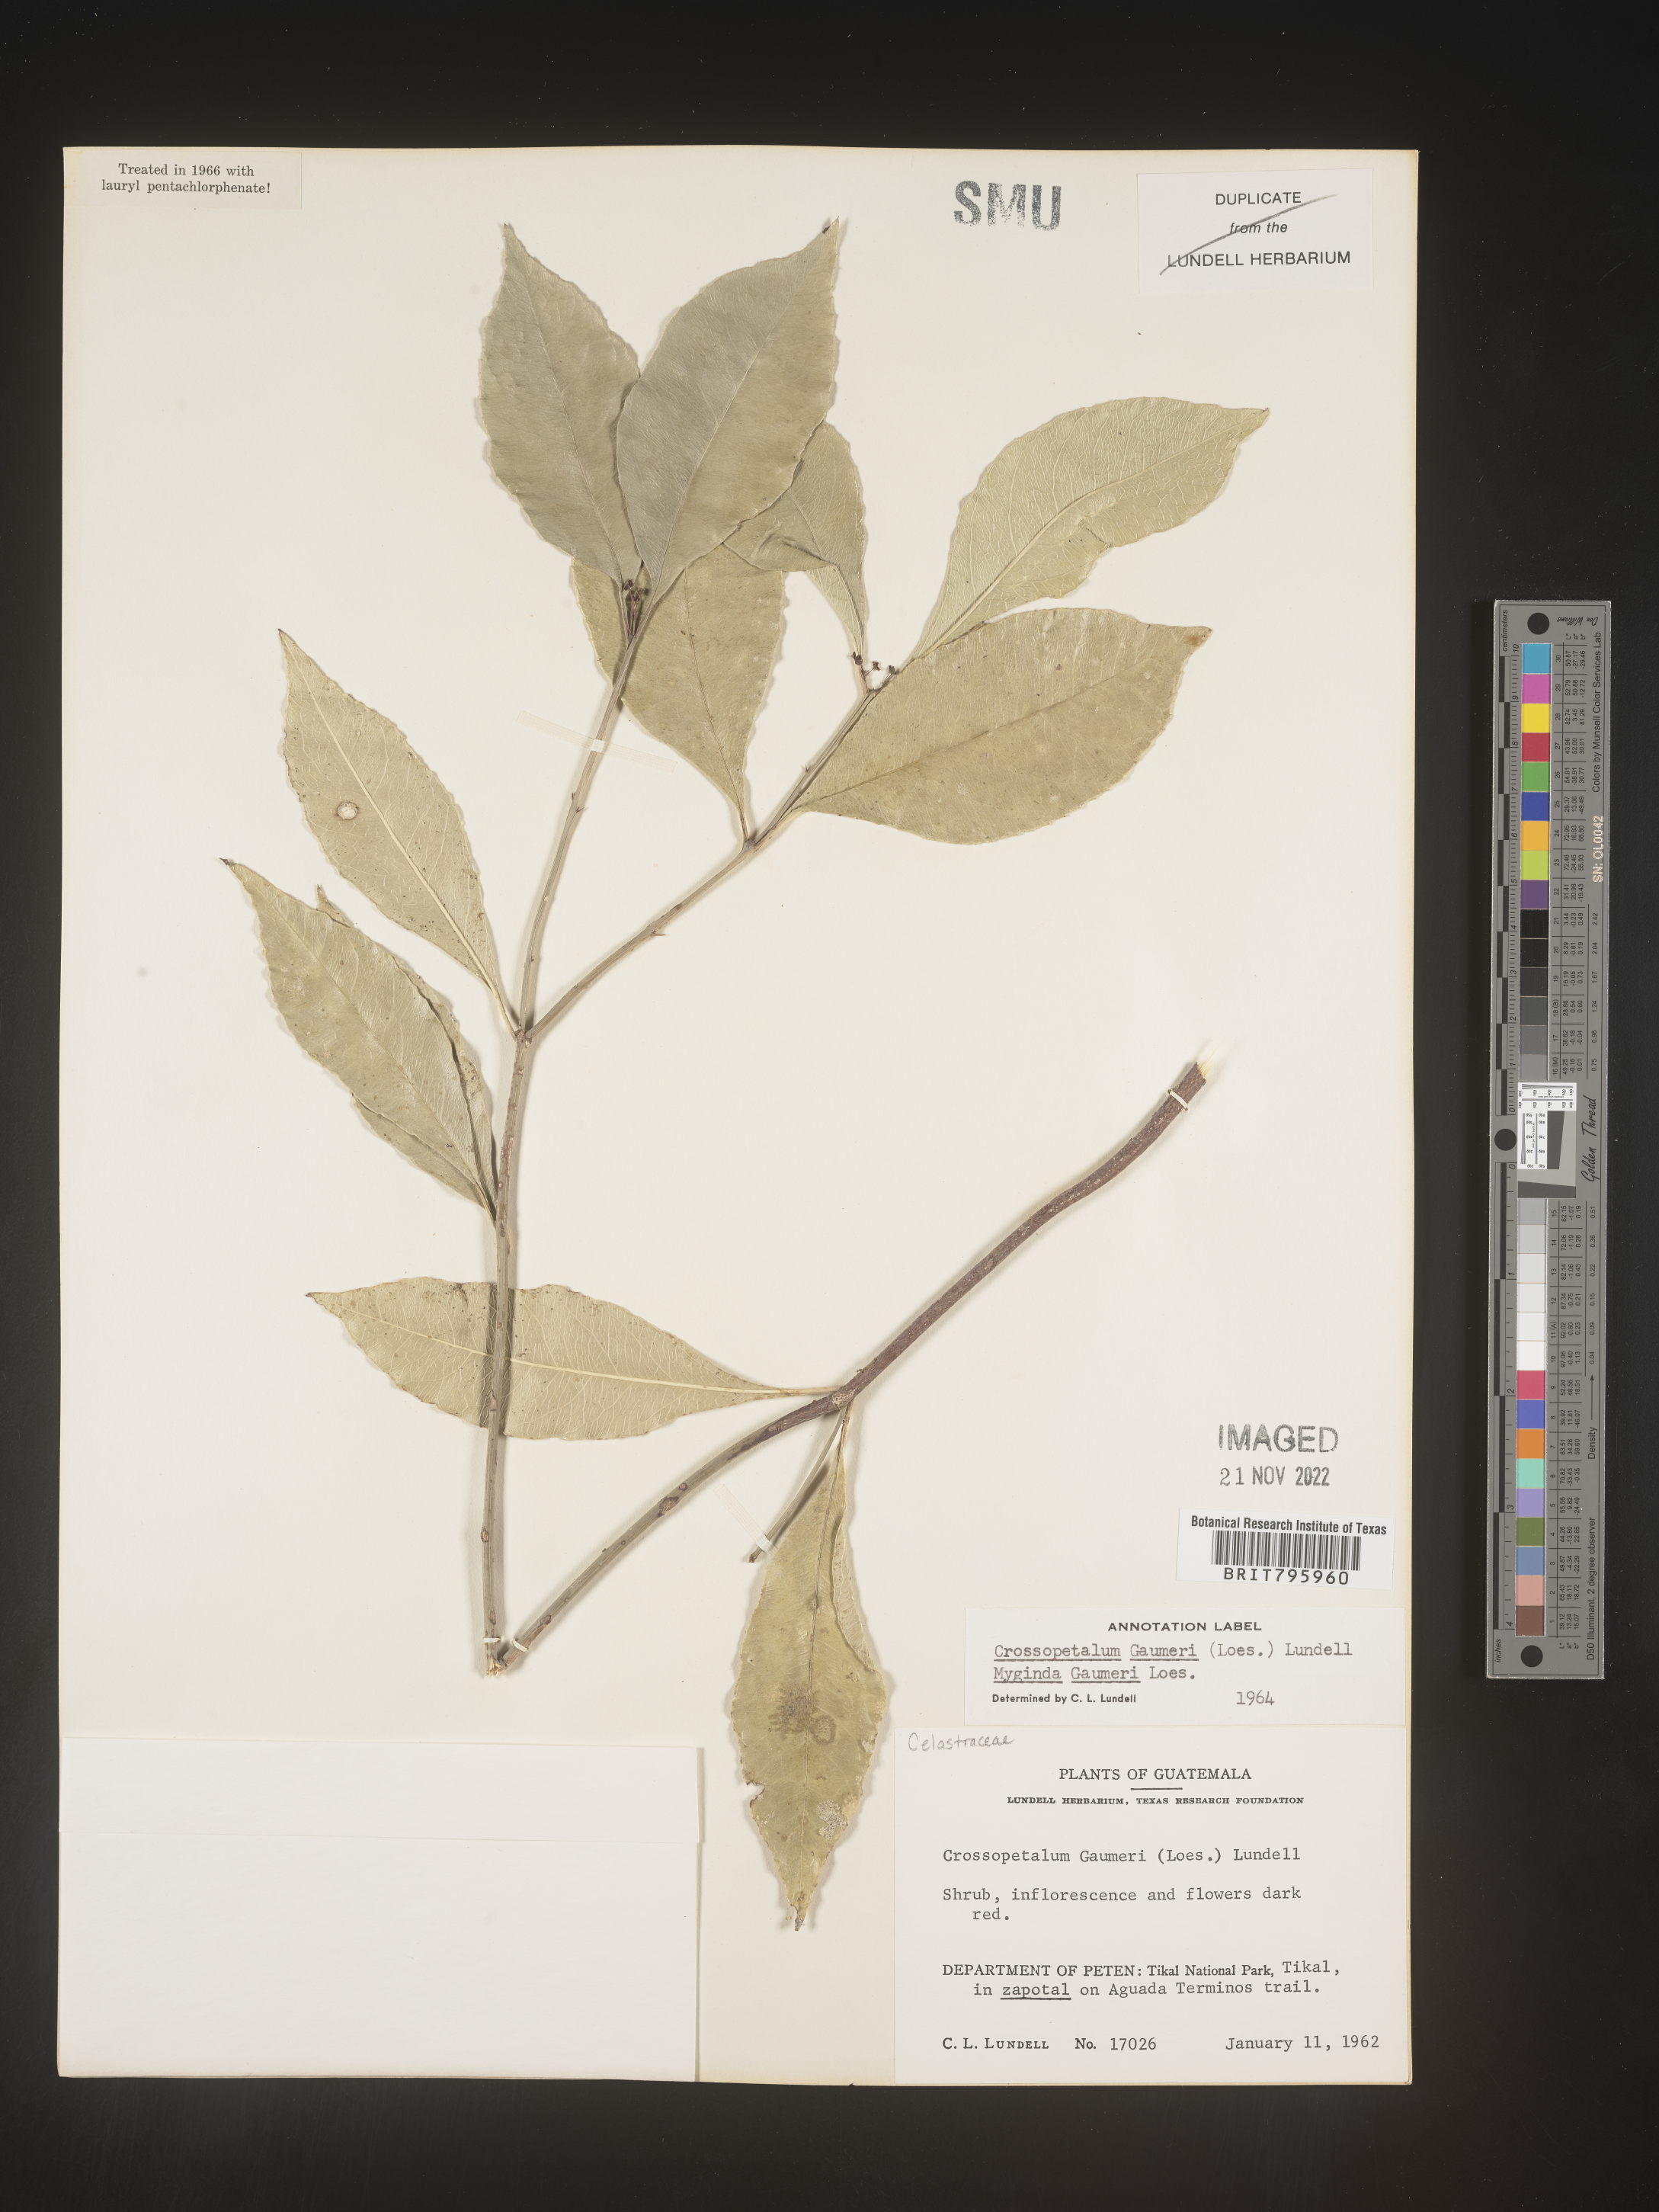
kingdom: Plantae
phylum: Tracheophyta
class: Magnoliopsida
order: Celastrales
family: Celastraceae
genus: Crossopetalum
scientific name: Crossopetalum
